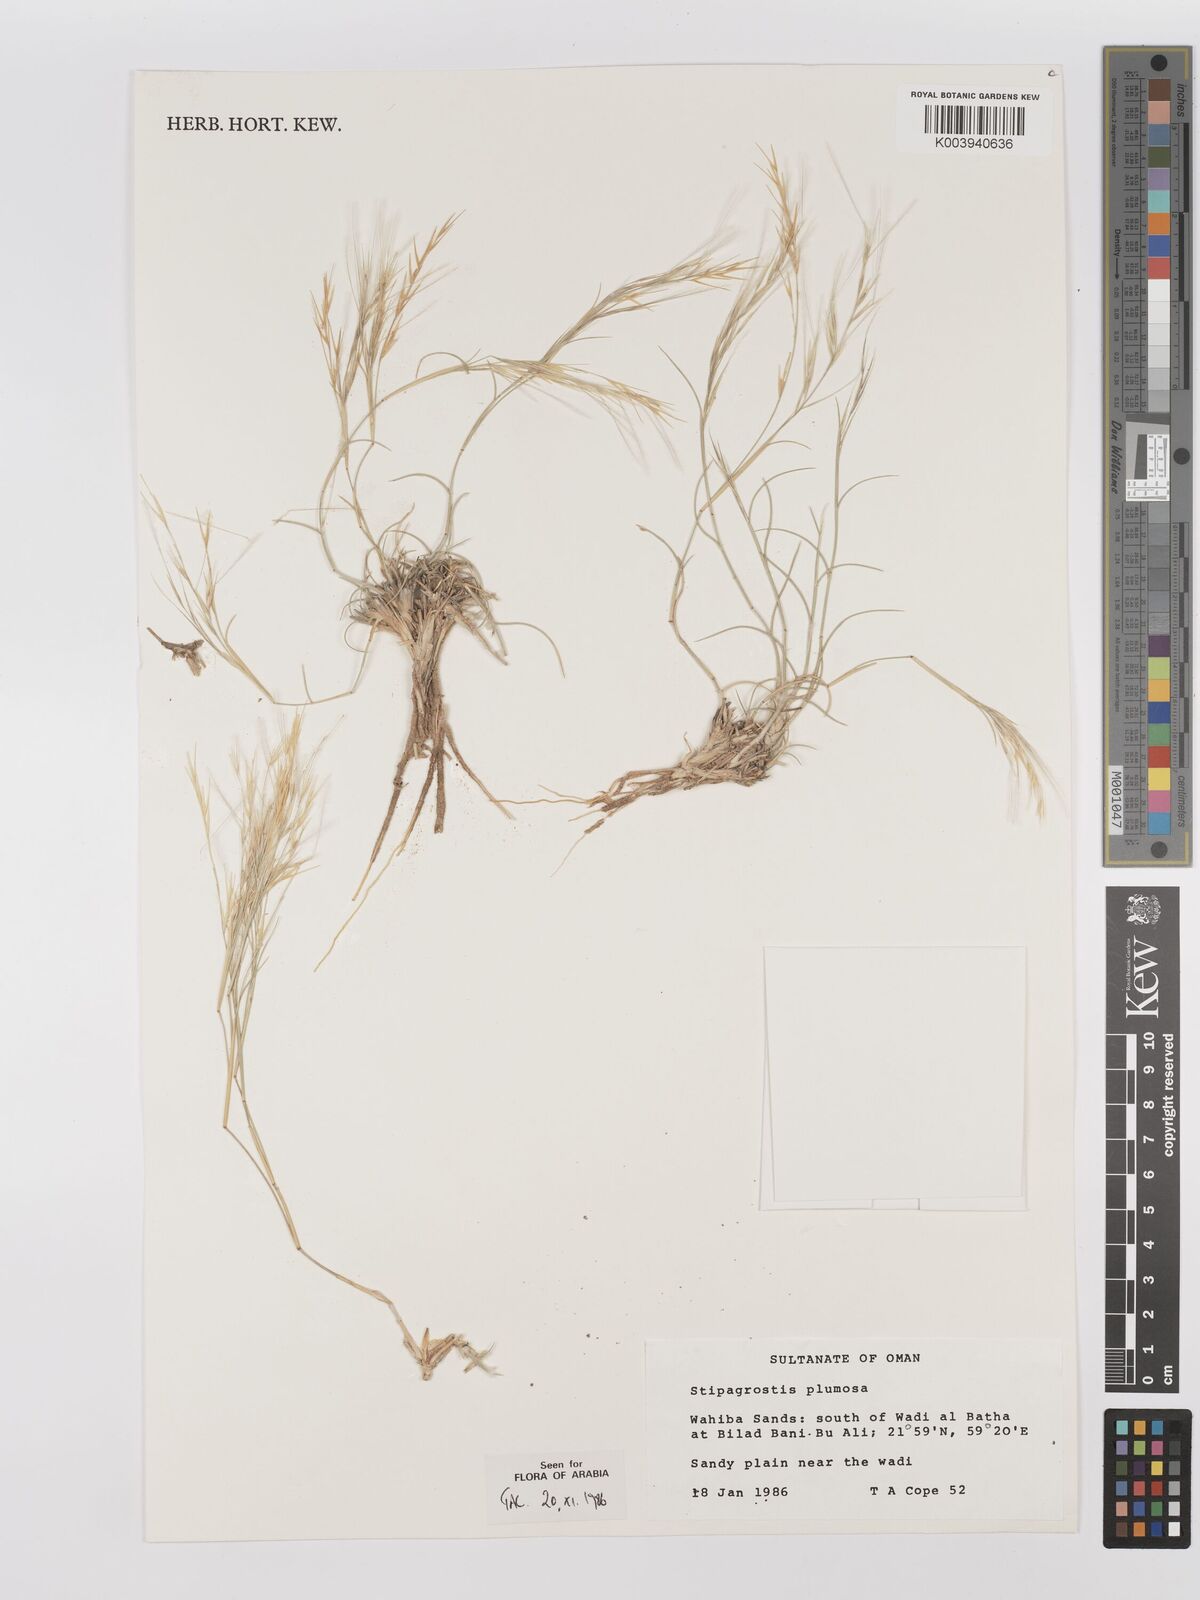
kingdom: Plantae
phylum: Tracheophyta
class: Liliopsida
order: Poales
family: Poaceae
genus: Stipagrostis
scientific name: Stipagrostis plumosa
